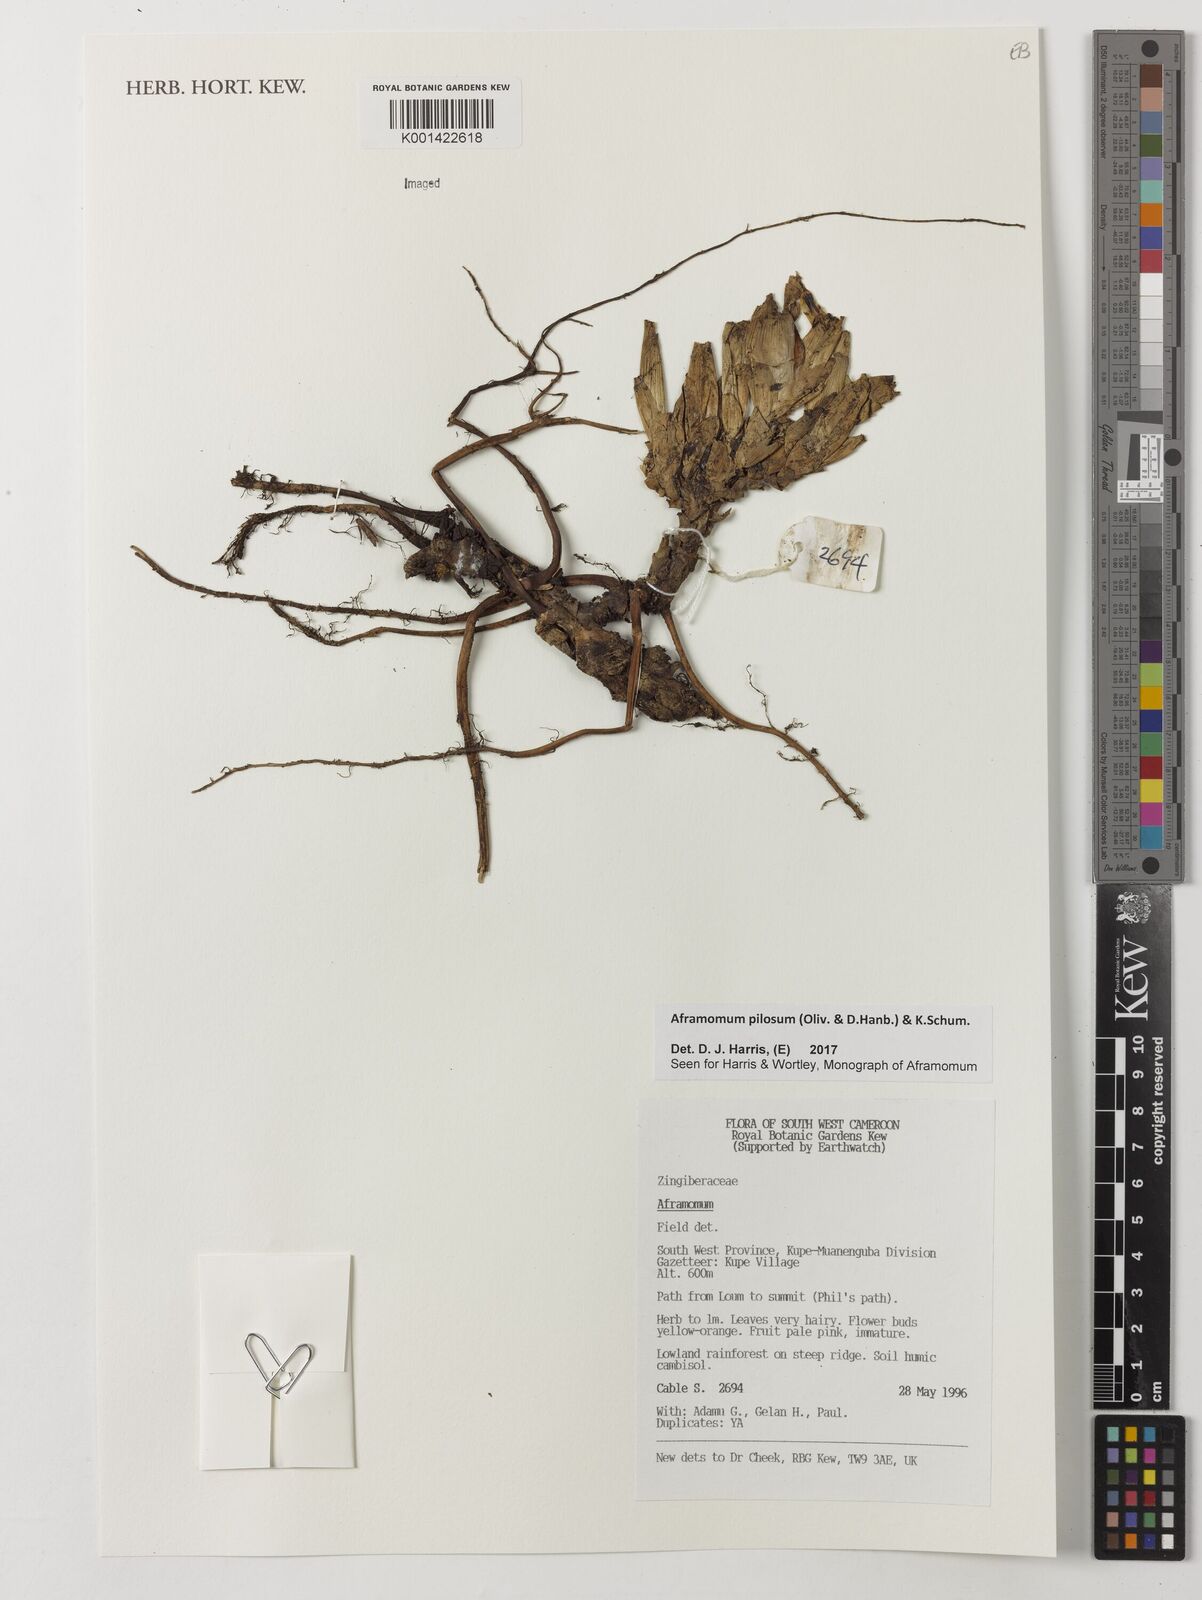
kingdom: Plantae
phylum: Tracheophyta
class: Liliopsida
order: Zingiberales
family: Zingiberaceae
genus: Aframomum
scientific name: Aframomum pilosum
